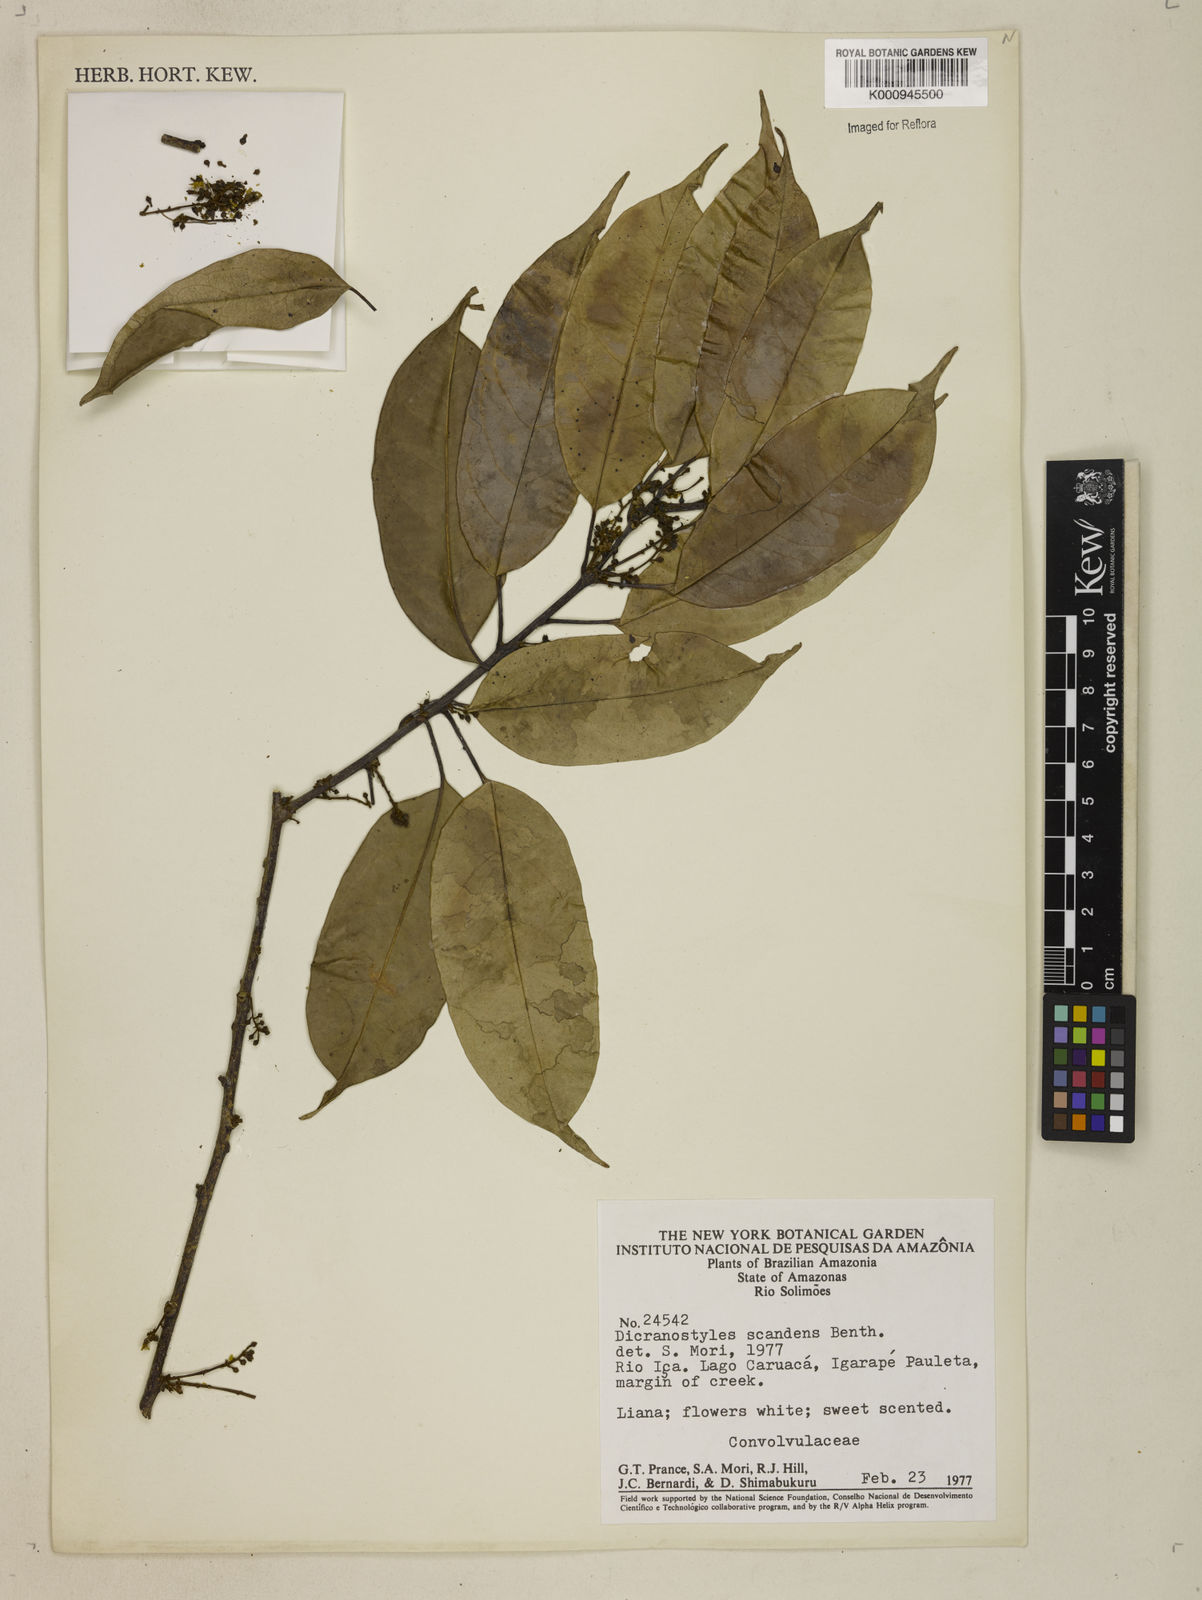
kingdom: Plantae
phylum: Tracheophyta
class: Magnoliopsida
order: Solanales
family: Convolvulaceae
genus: Dicranostyles
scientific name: Dicranostyles scandens
